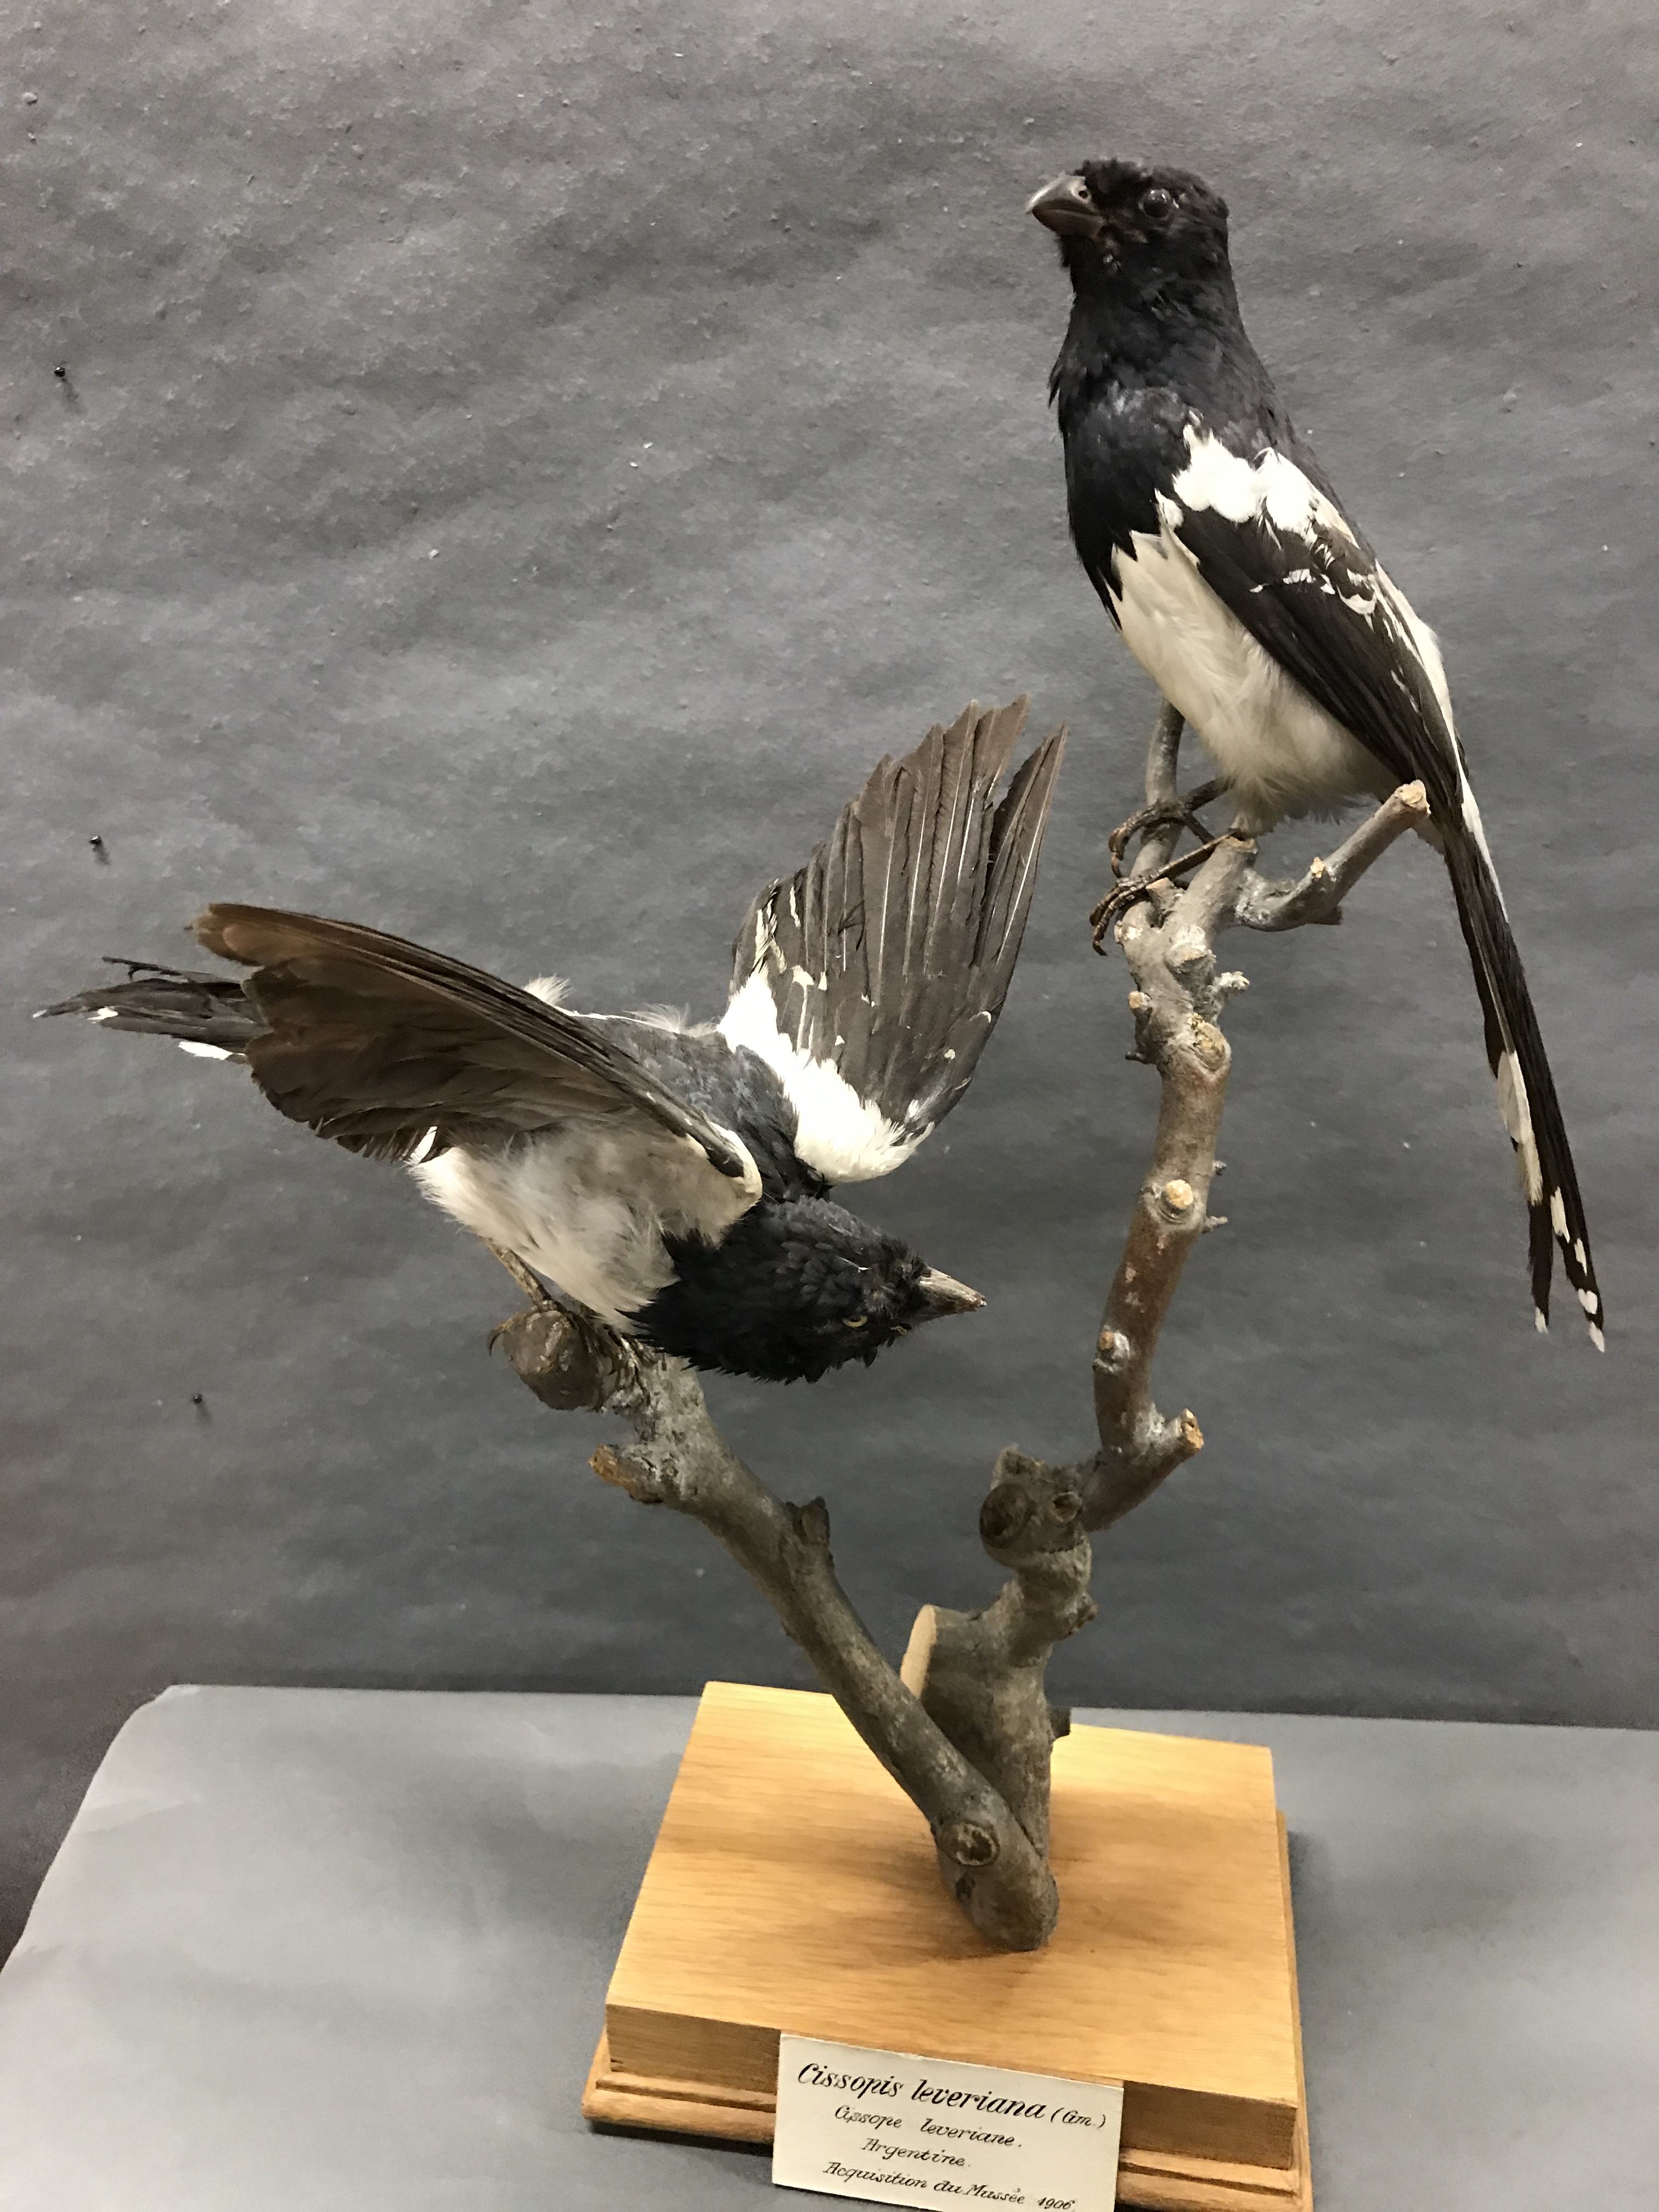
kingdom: Animalia
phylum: Chordata
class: Aves
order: Passeriformes
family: Thraupidae
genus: Cissopis
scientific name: Cissopis leverianus
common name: Magpie tanager
